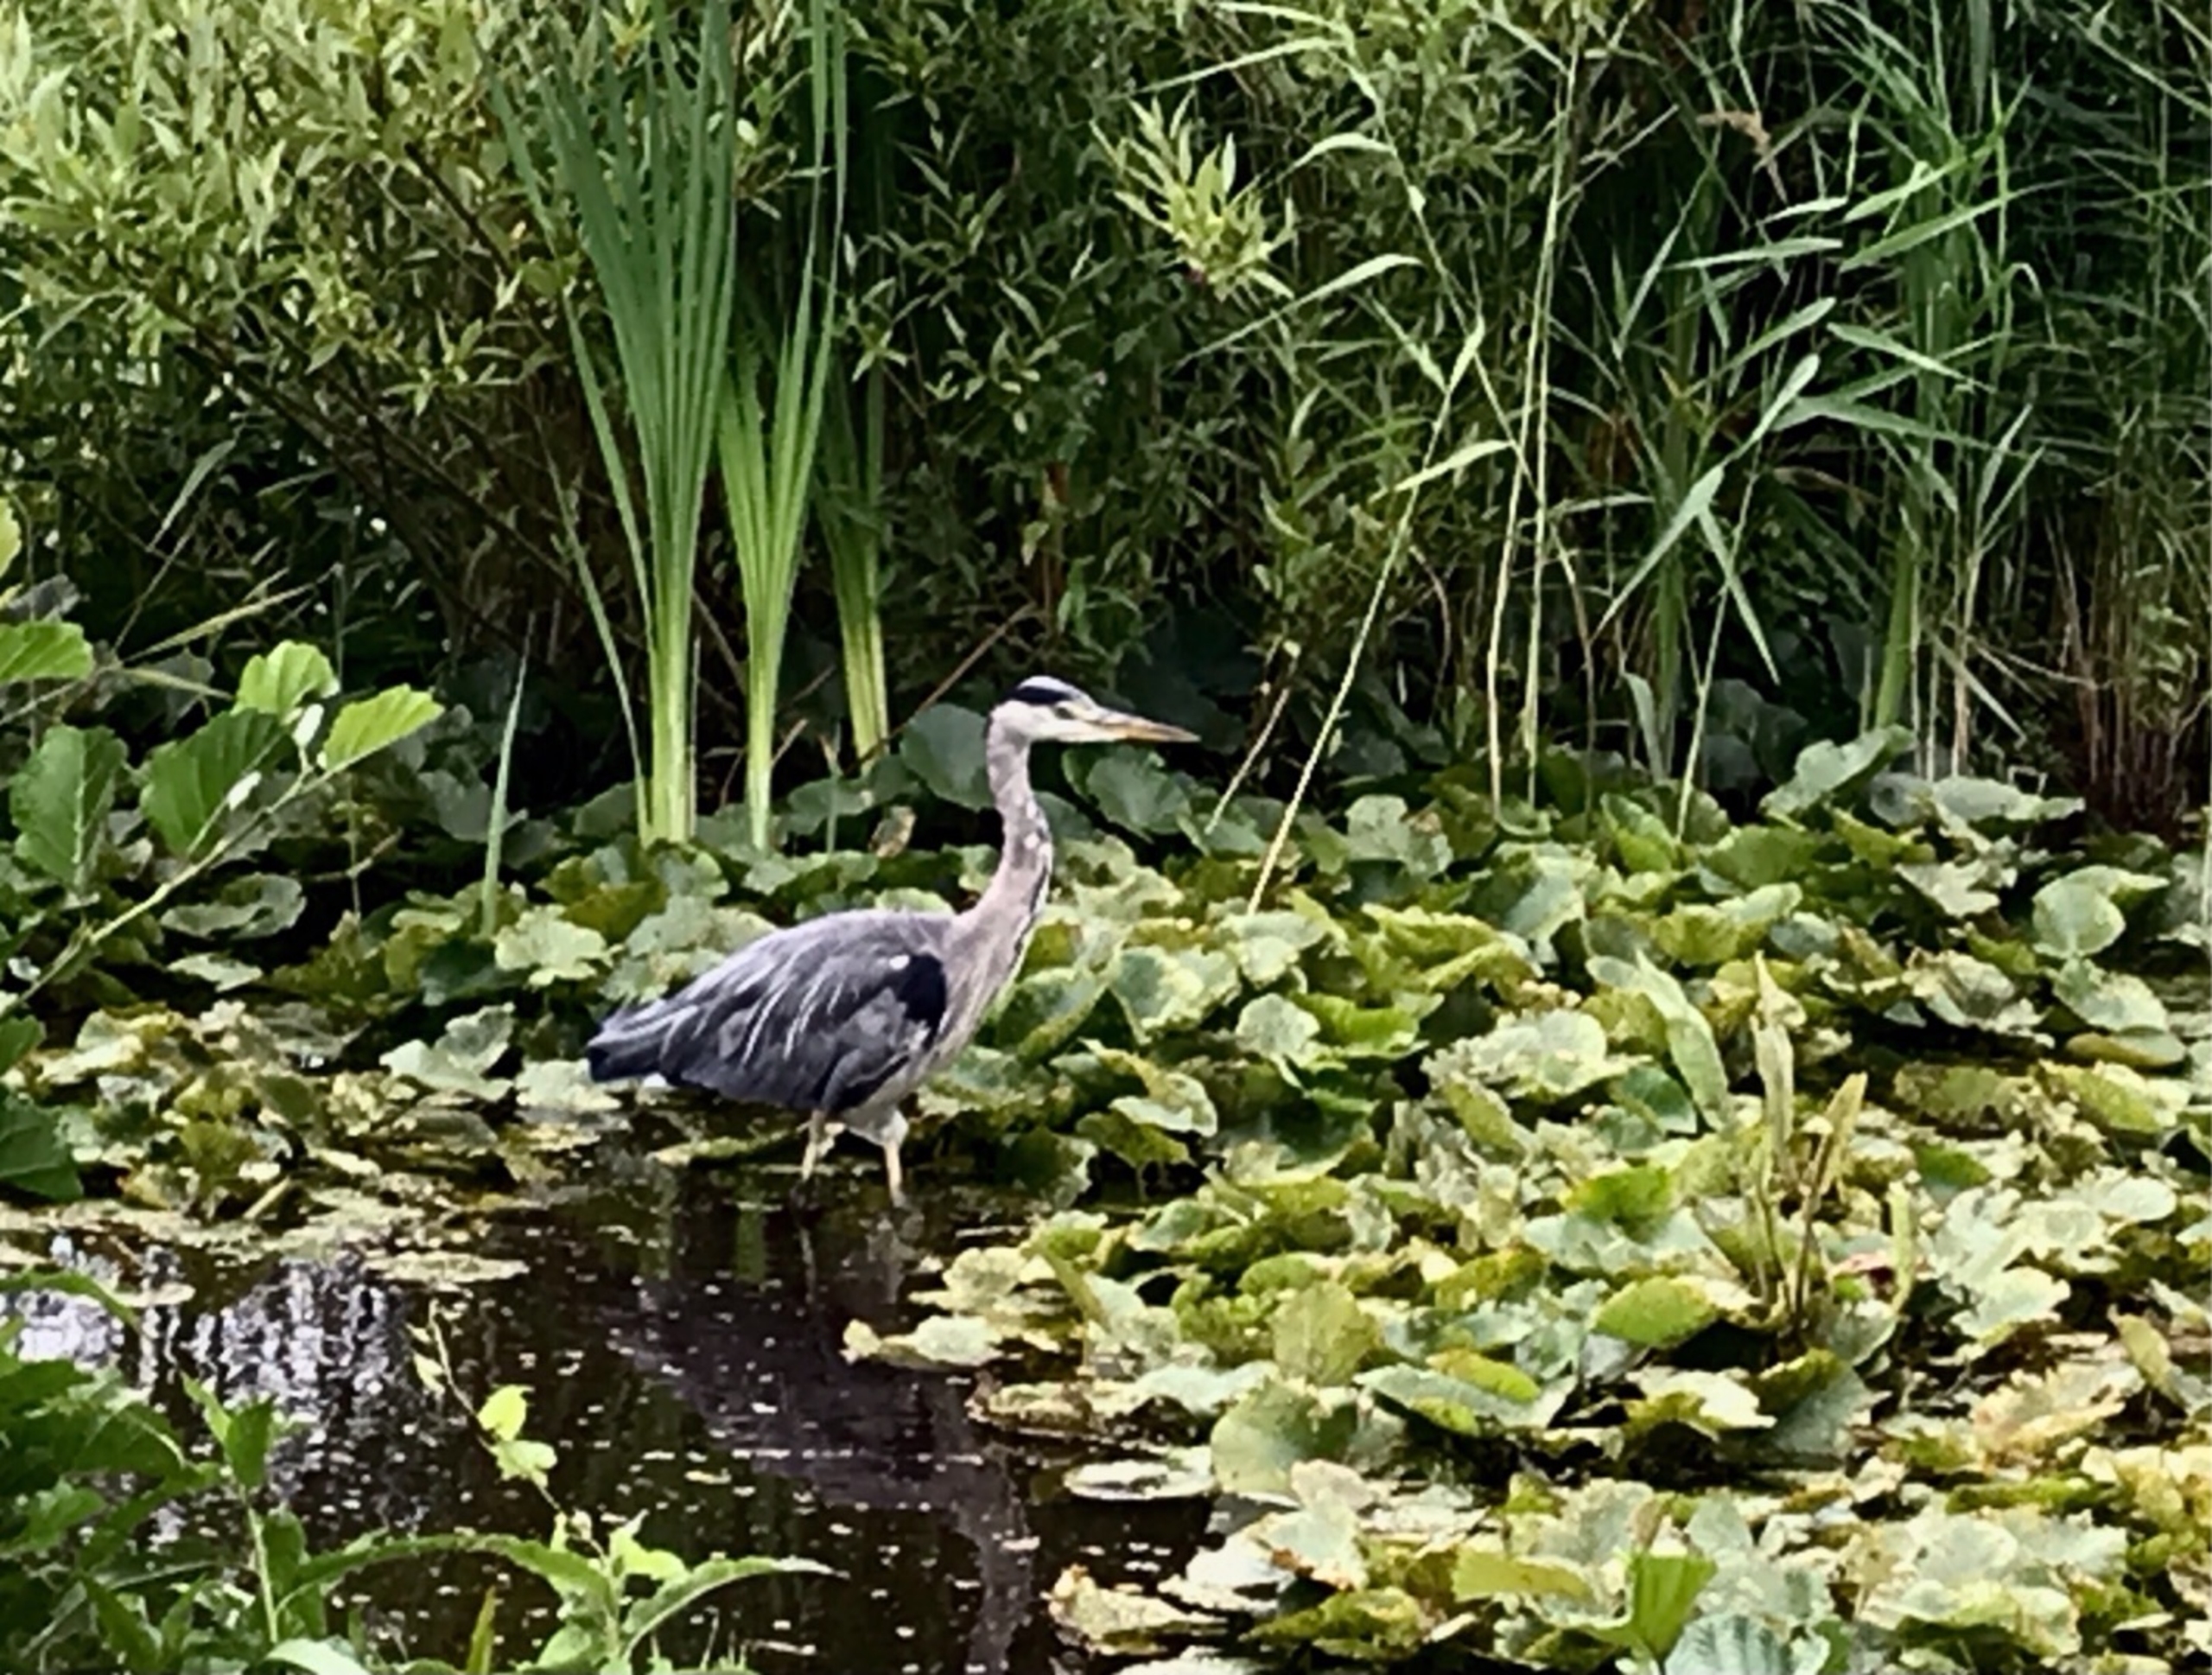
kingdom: Animalia
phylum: Chordata
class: Aves
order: Pelecaniformes
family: Ardeidae
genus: Ardea
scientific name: Ardea cinerea
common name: Fiskehejre
